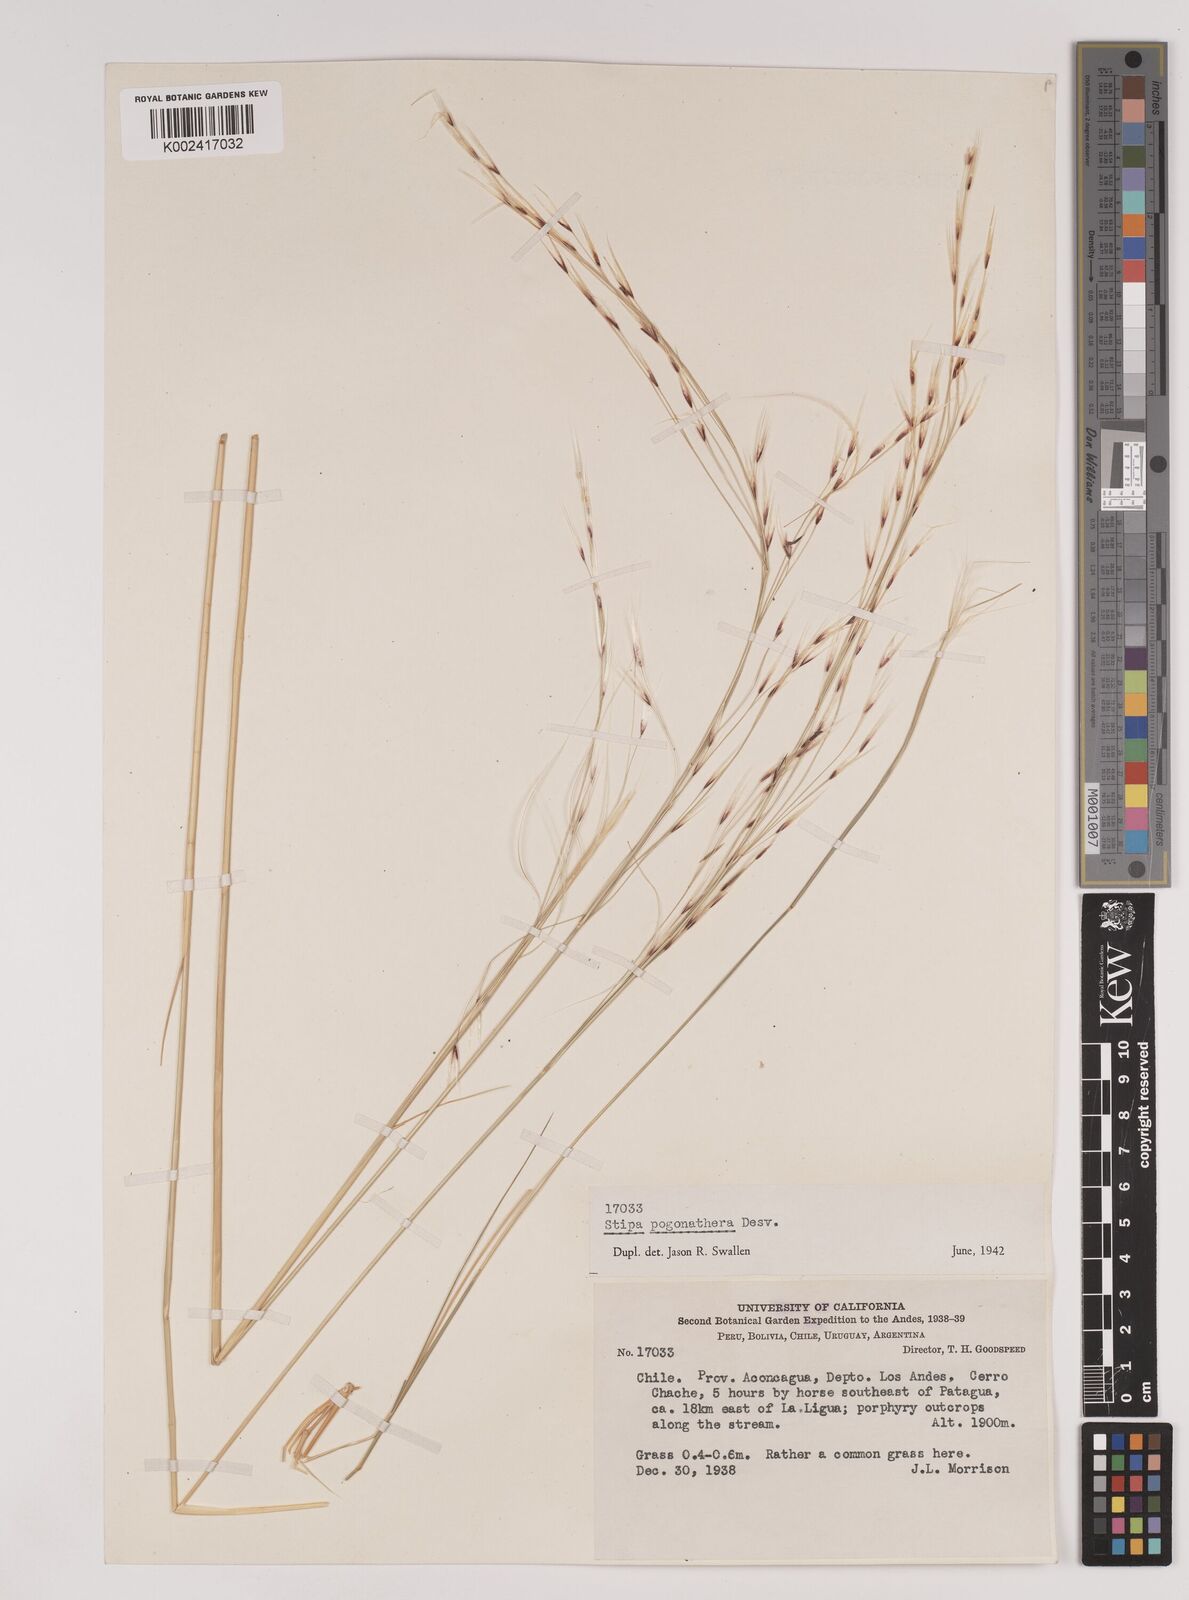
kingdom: Plantae
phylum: Tracheophyta
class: Liliopsida
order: Poales
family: Poaceae
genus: Stipa
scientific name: Stipa pogonathera
